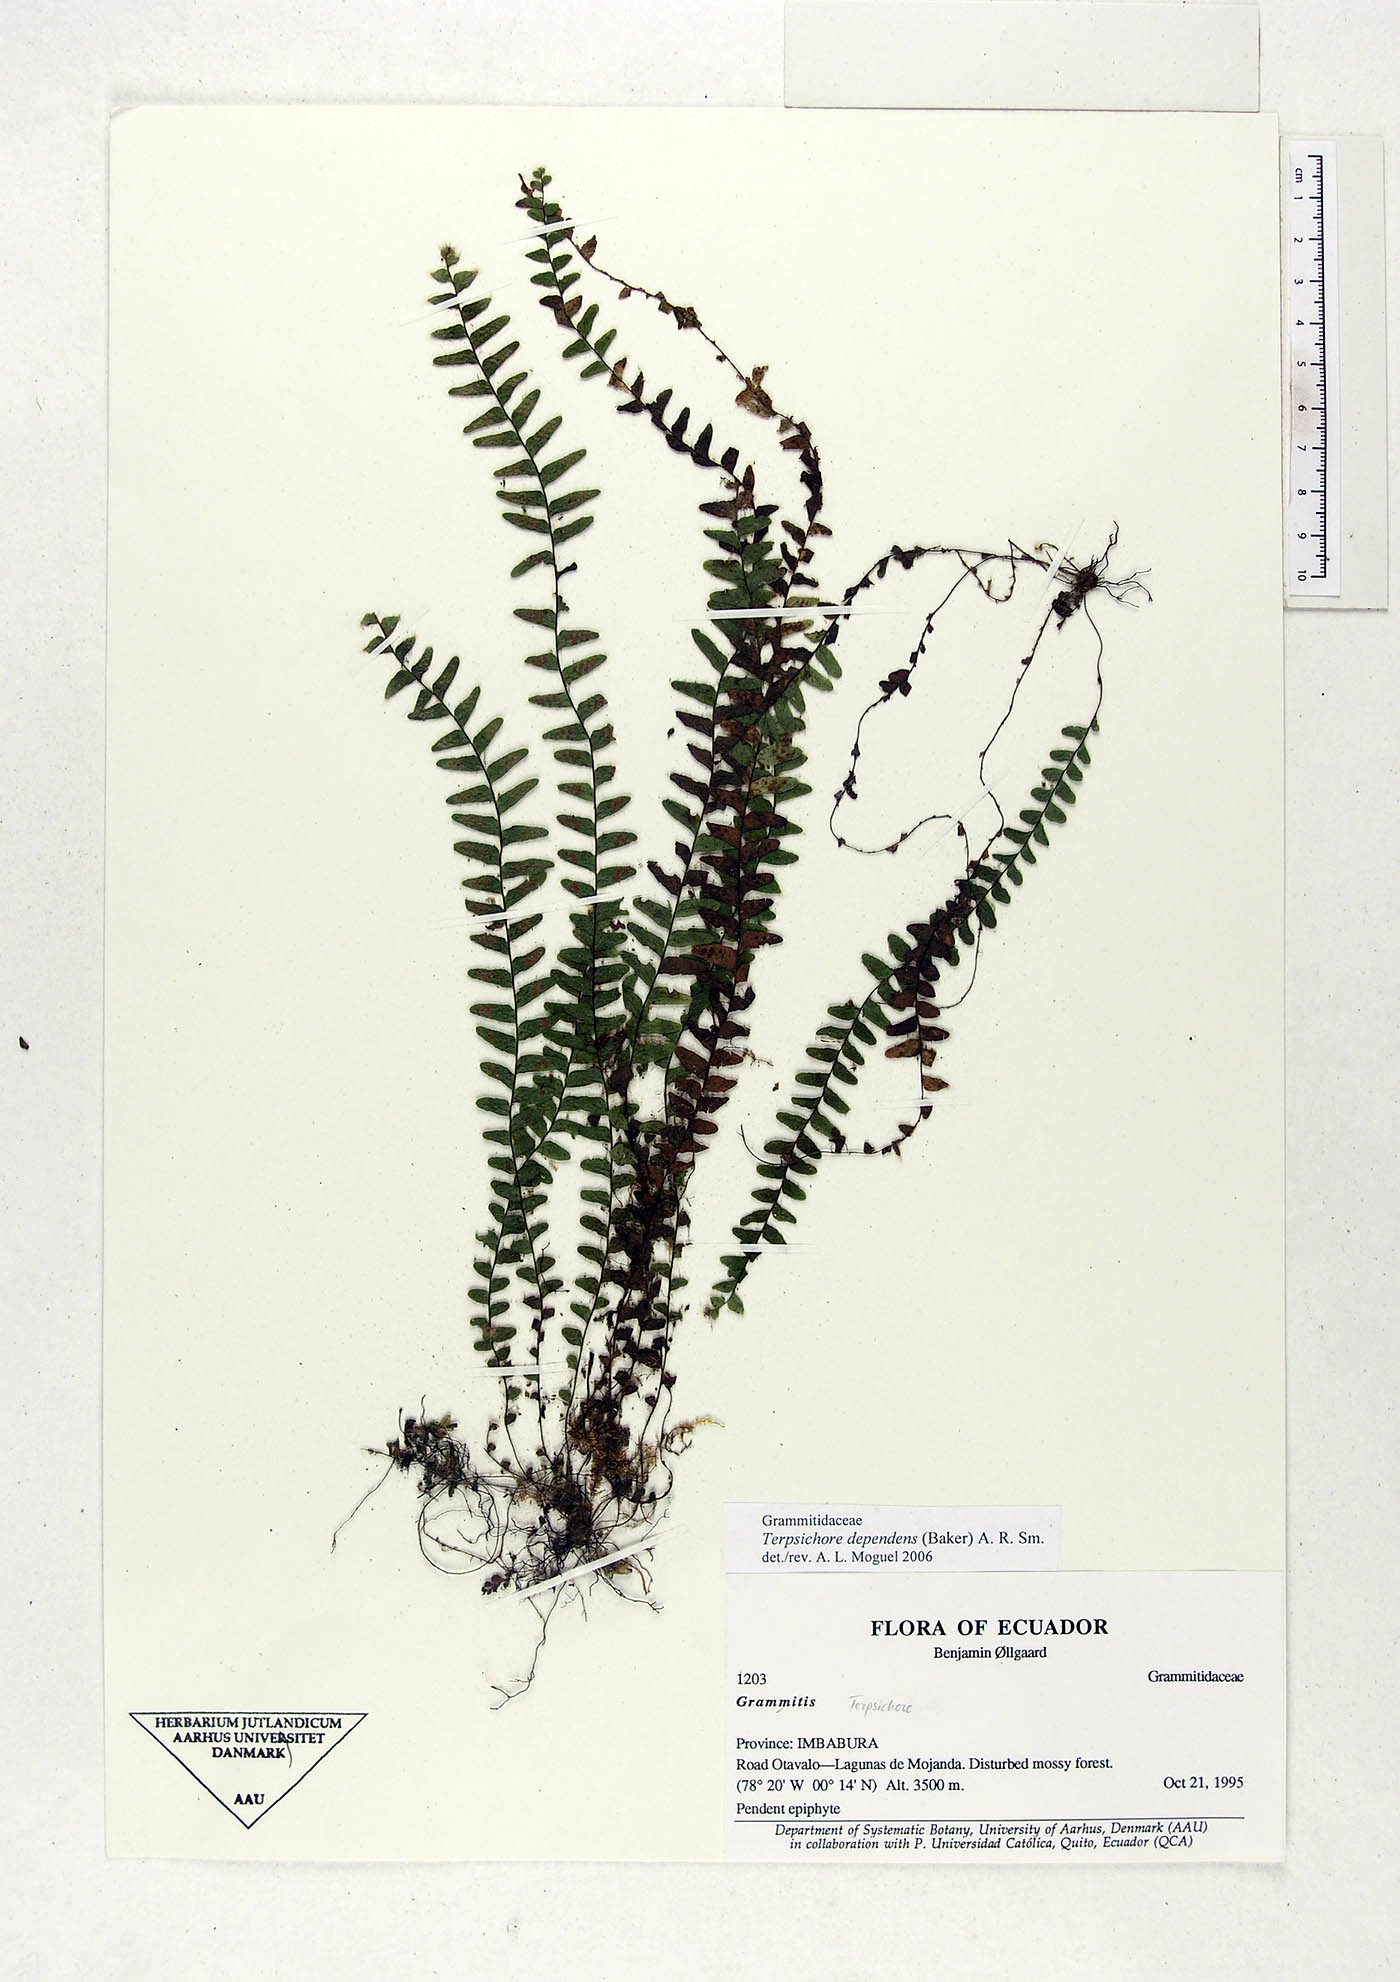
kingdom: Plantae
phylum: Tracheophyta
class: Polypodiopsida
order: Polypodiales
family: Polypodiaceae
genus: Alansmia
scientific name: Alansmia dependens
